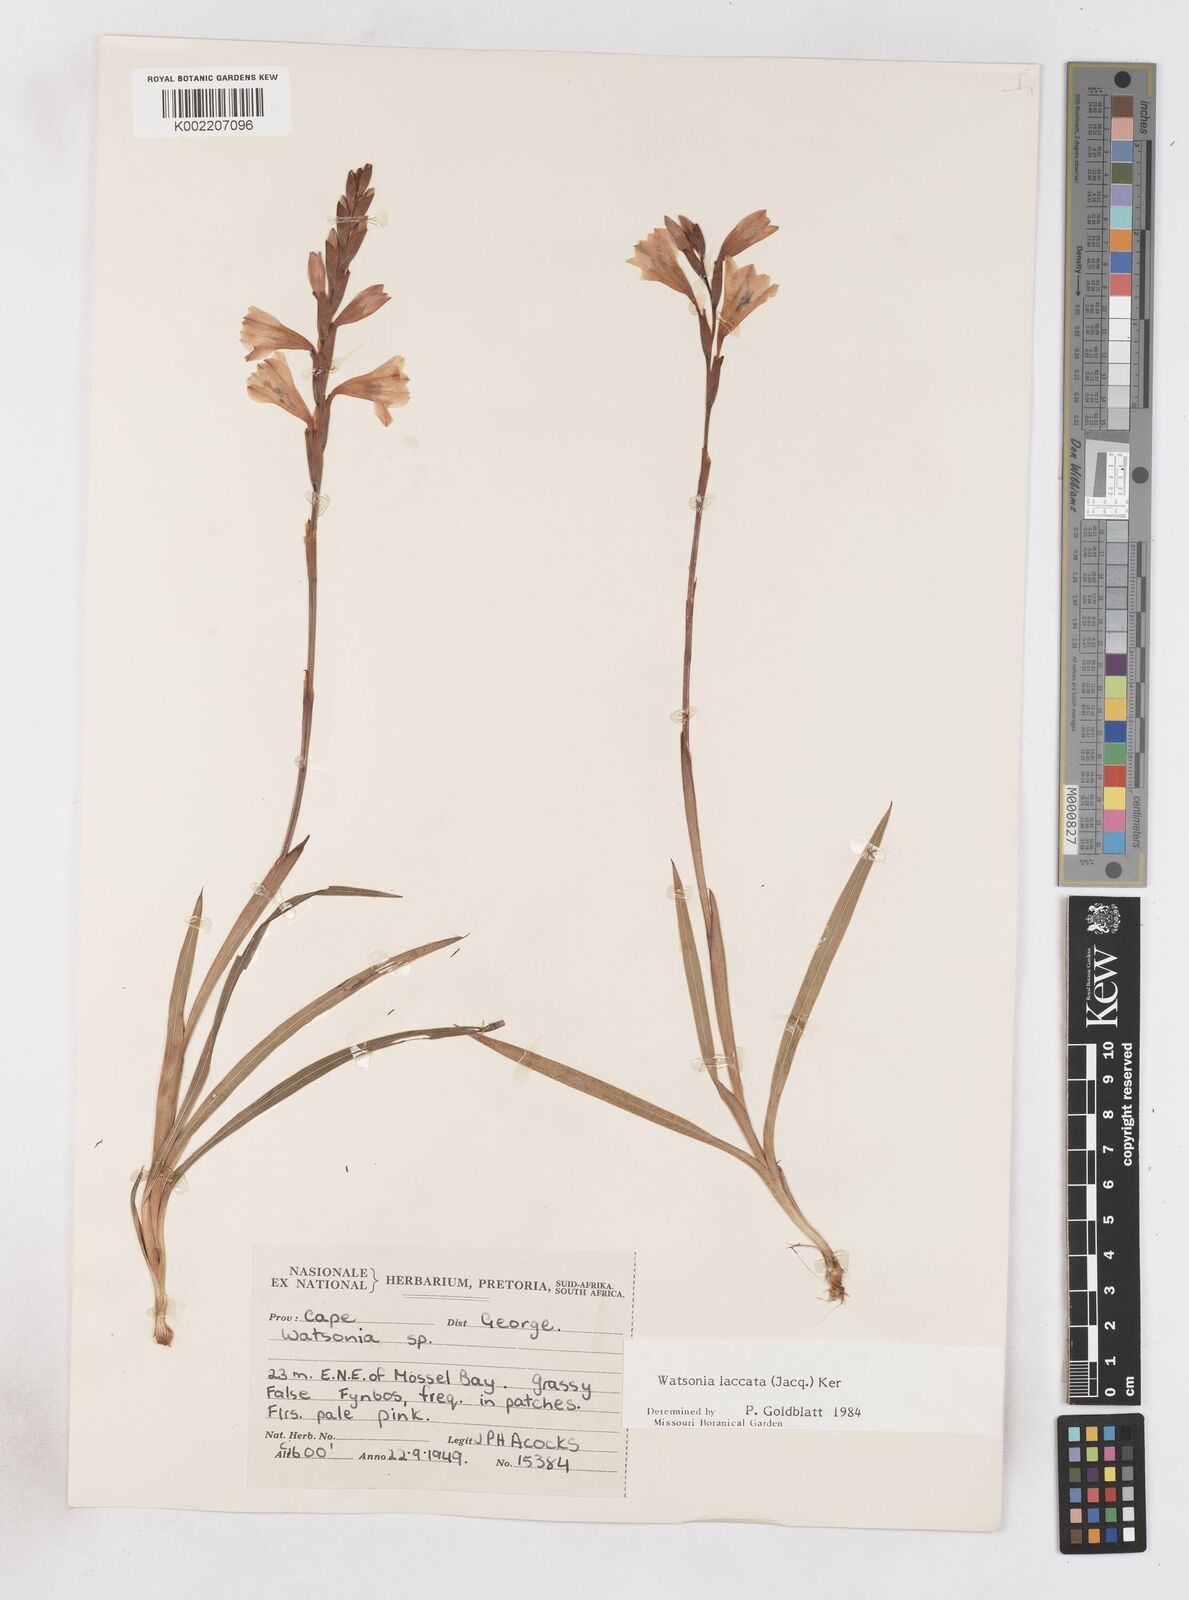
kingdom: Plantae
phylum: Tracheophyta
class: Liliopsida
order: Asparagales
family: Iridaceae
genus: Watsonia
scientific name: Watsonia laccata
